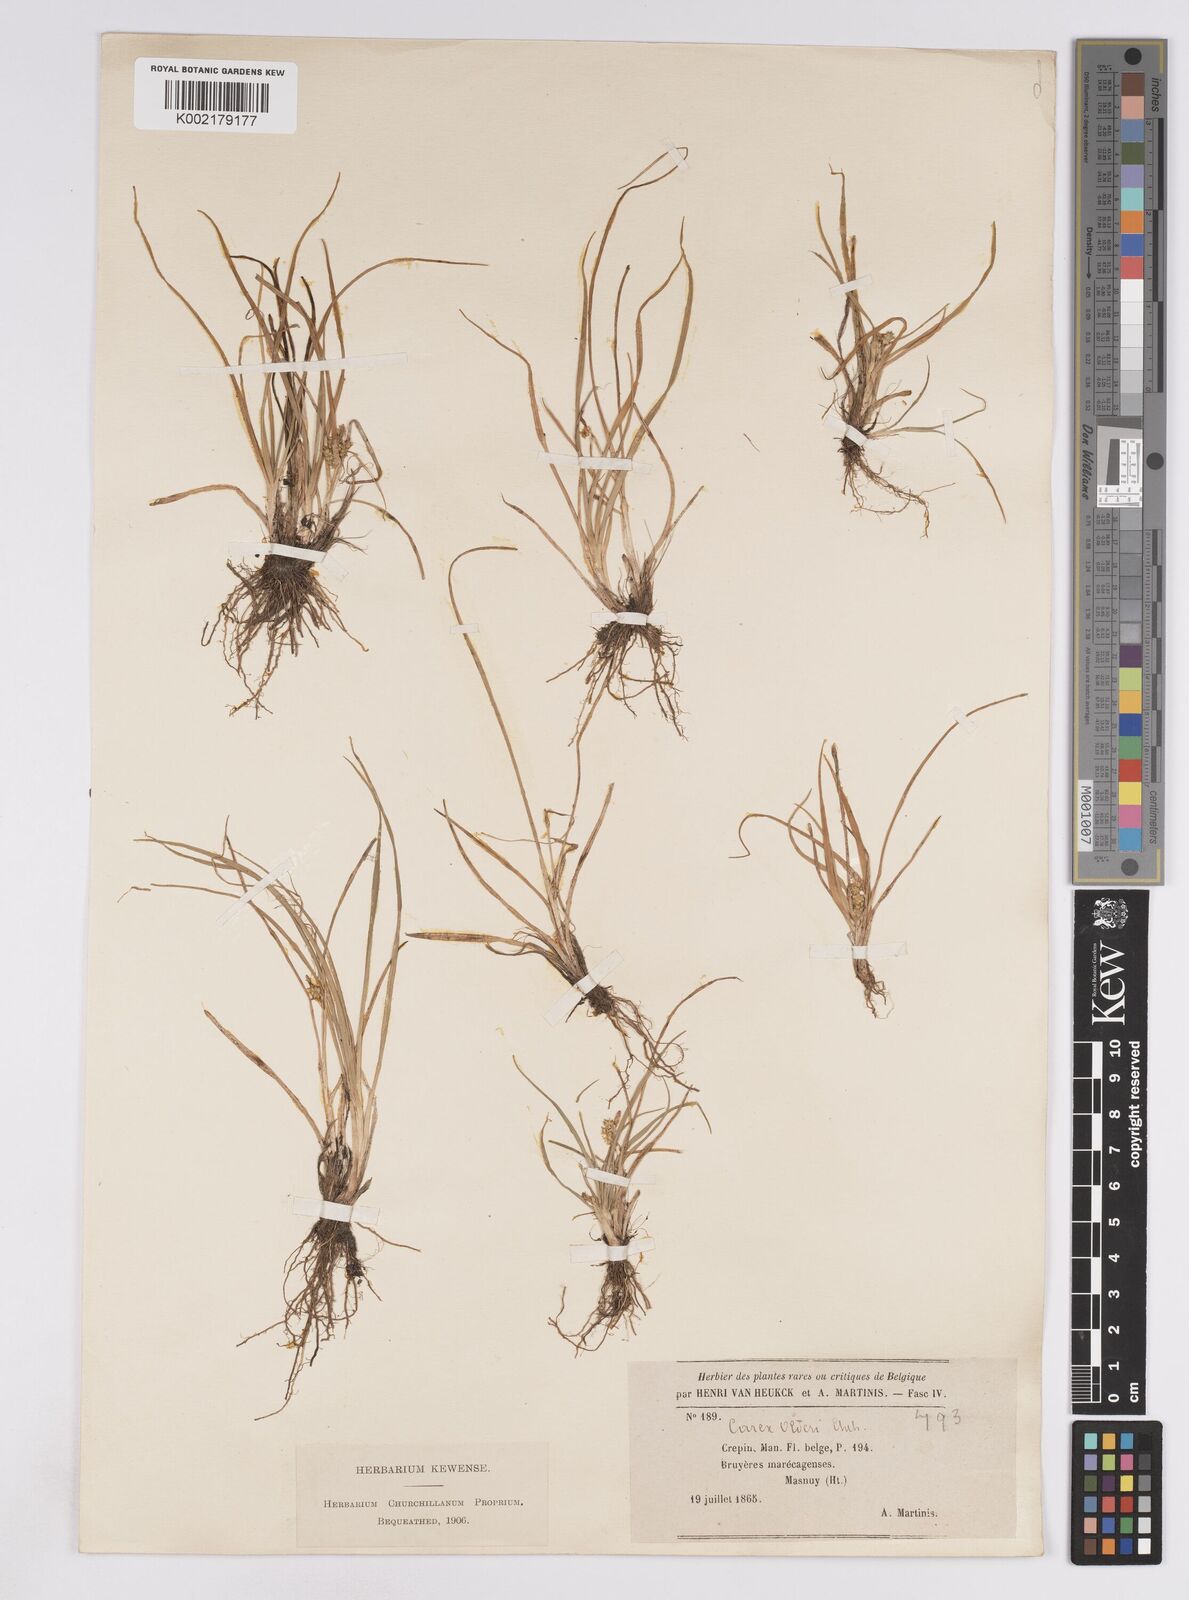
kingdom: Plantae
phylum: Tracheophyta
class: Liliopsida
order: Poales
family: Cyperaceae
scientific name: Cyperaceae
